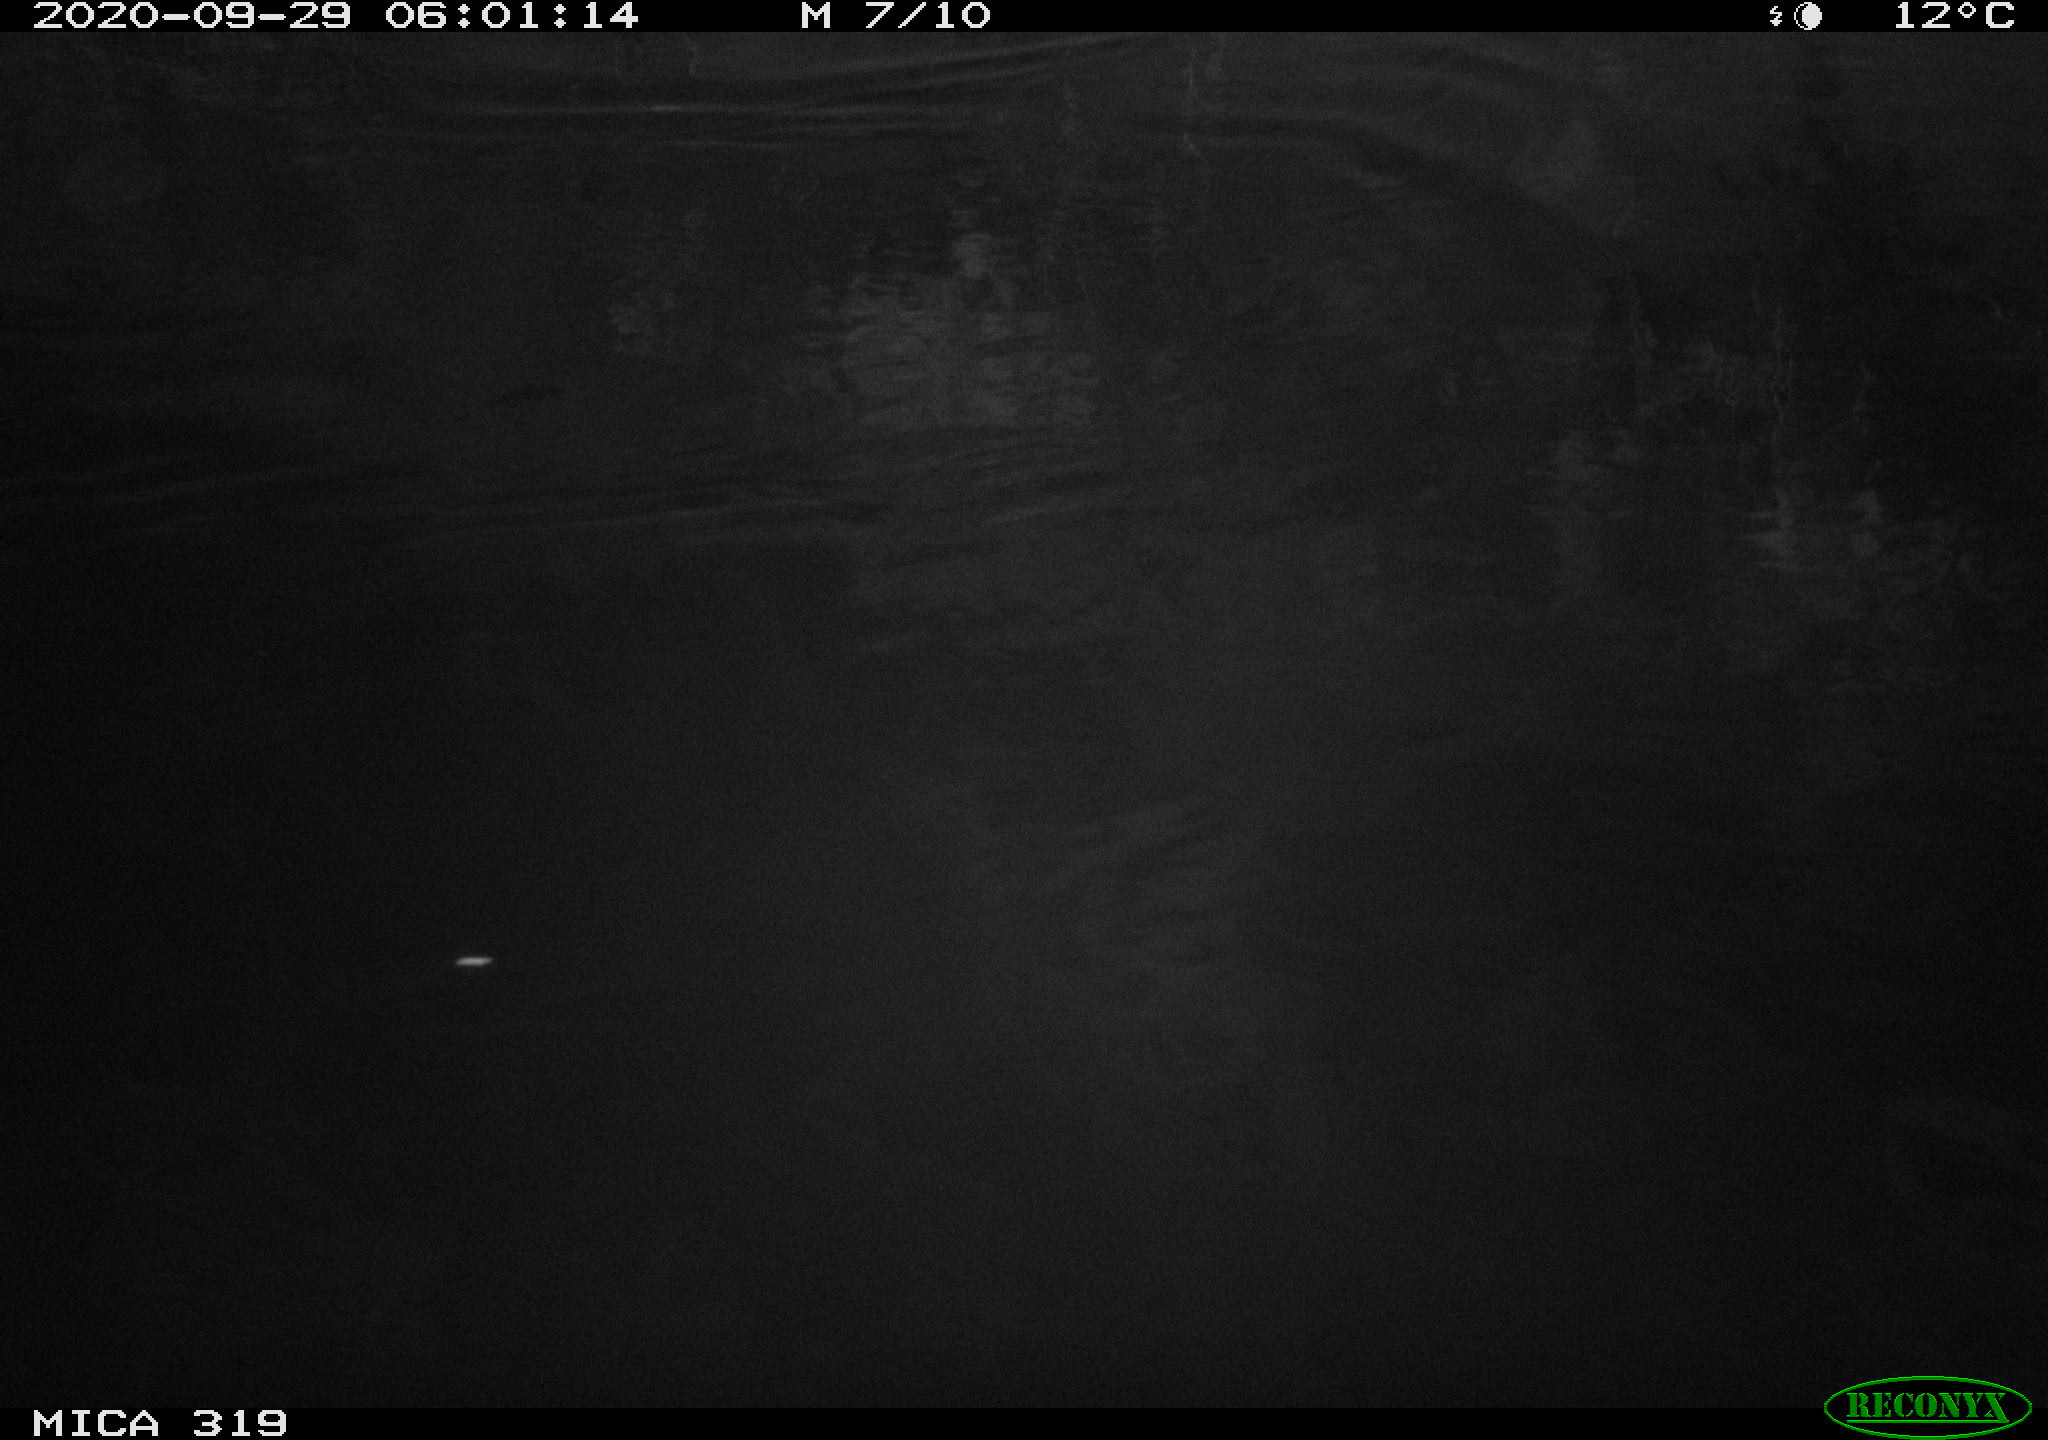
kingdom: Animalia
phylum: Chordata
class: Mammalia
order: Rodentia
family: Muridae
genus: Rattus
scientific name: Rattus norvegicus
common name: Brown rat
